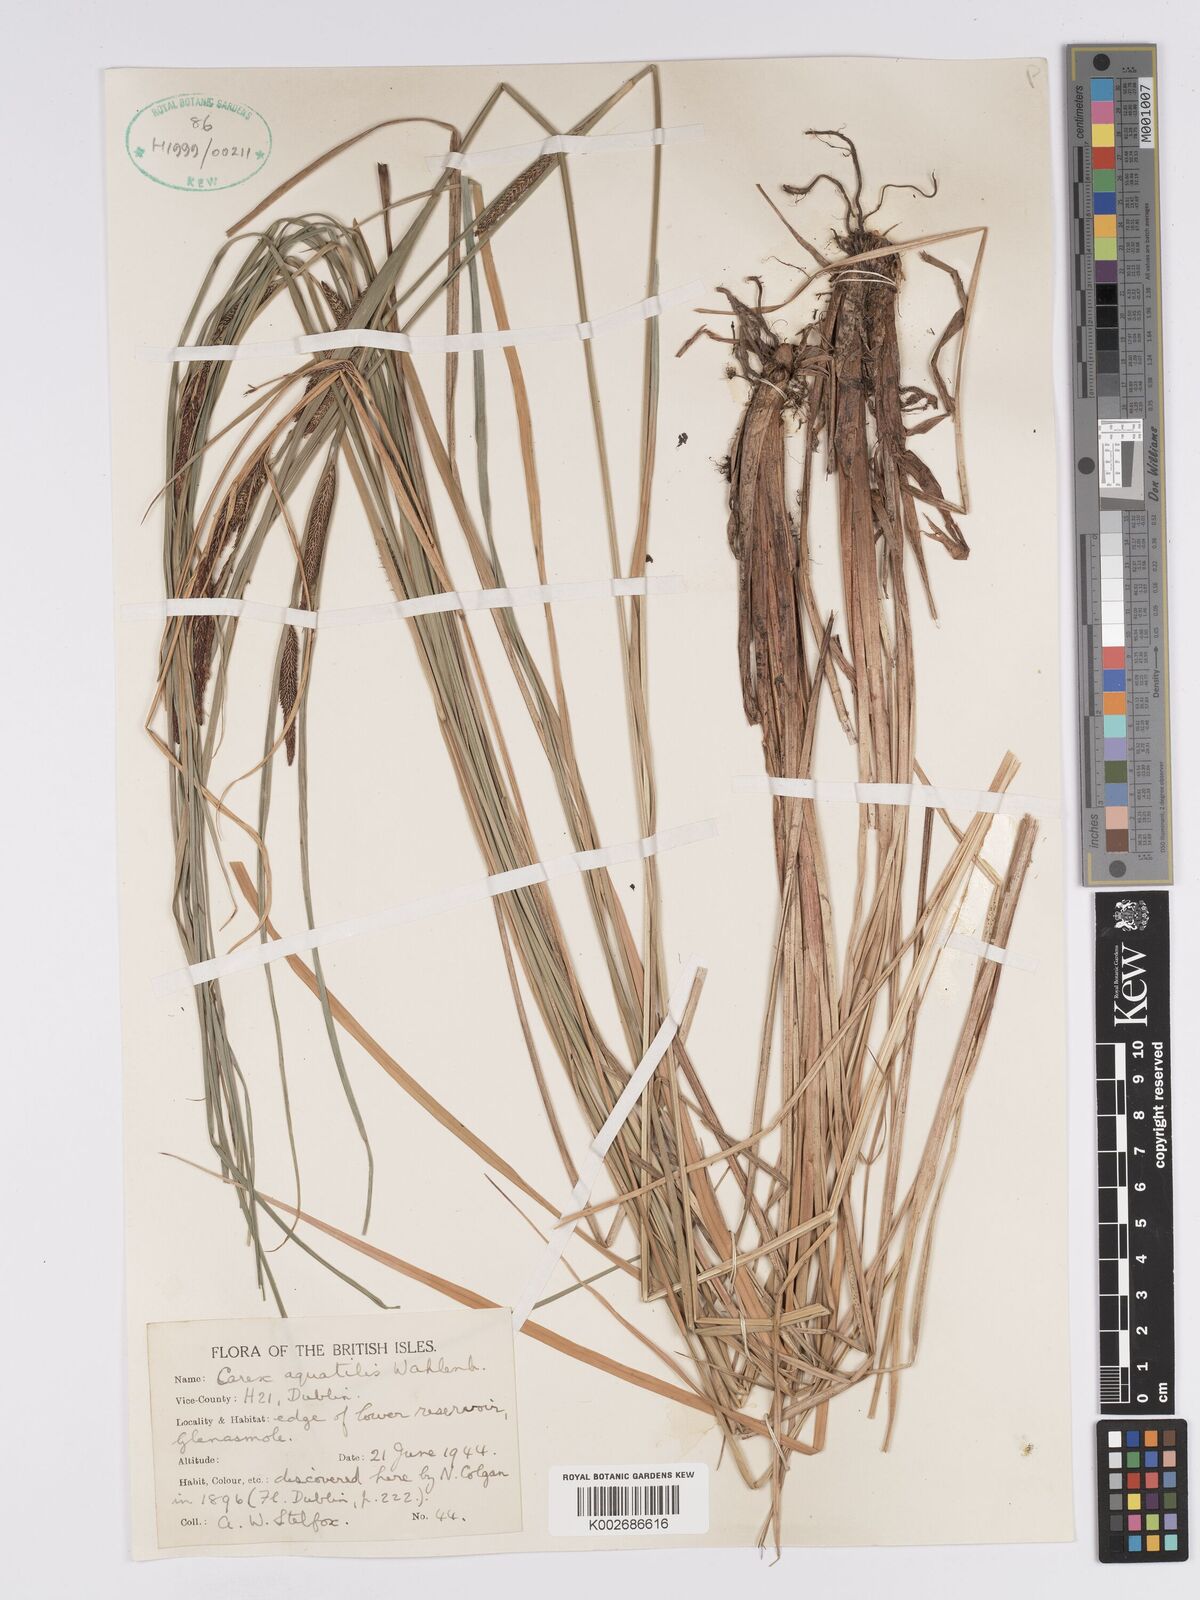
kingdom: Plantae
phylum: Tracheophyta
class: Liliopsida
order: Poales
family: Cyperaceae
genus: Carex
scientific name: Carex aquatilis
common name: Water sedge
